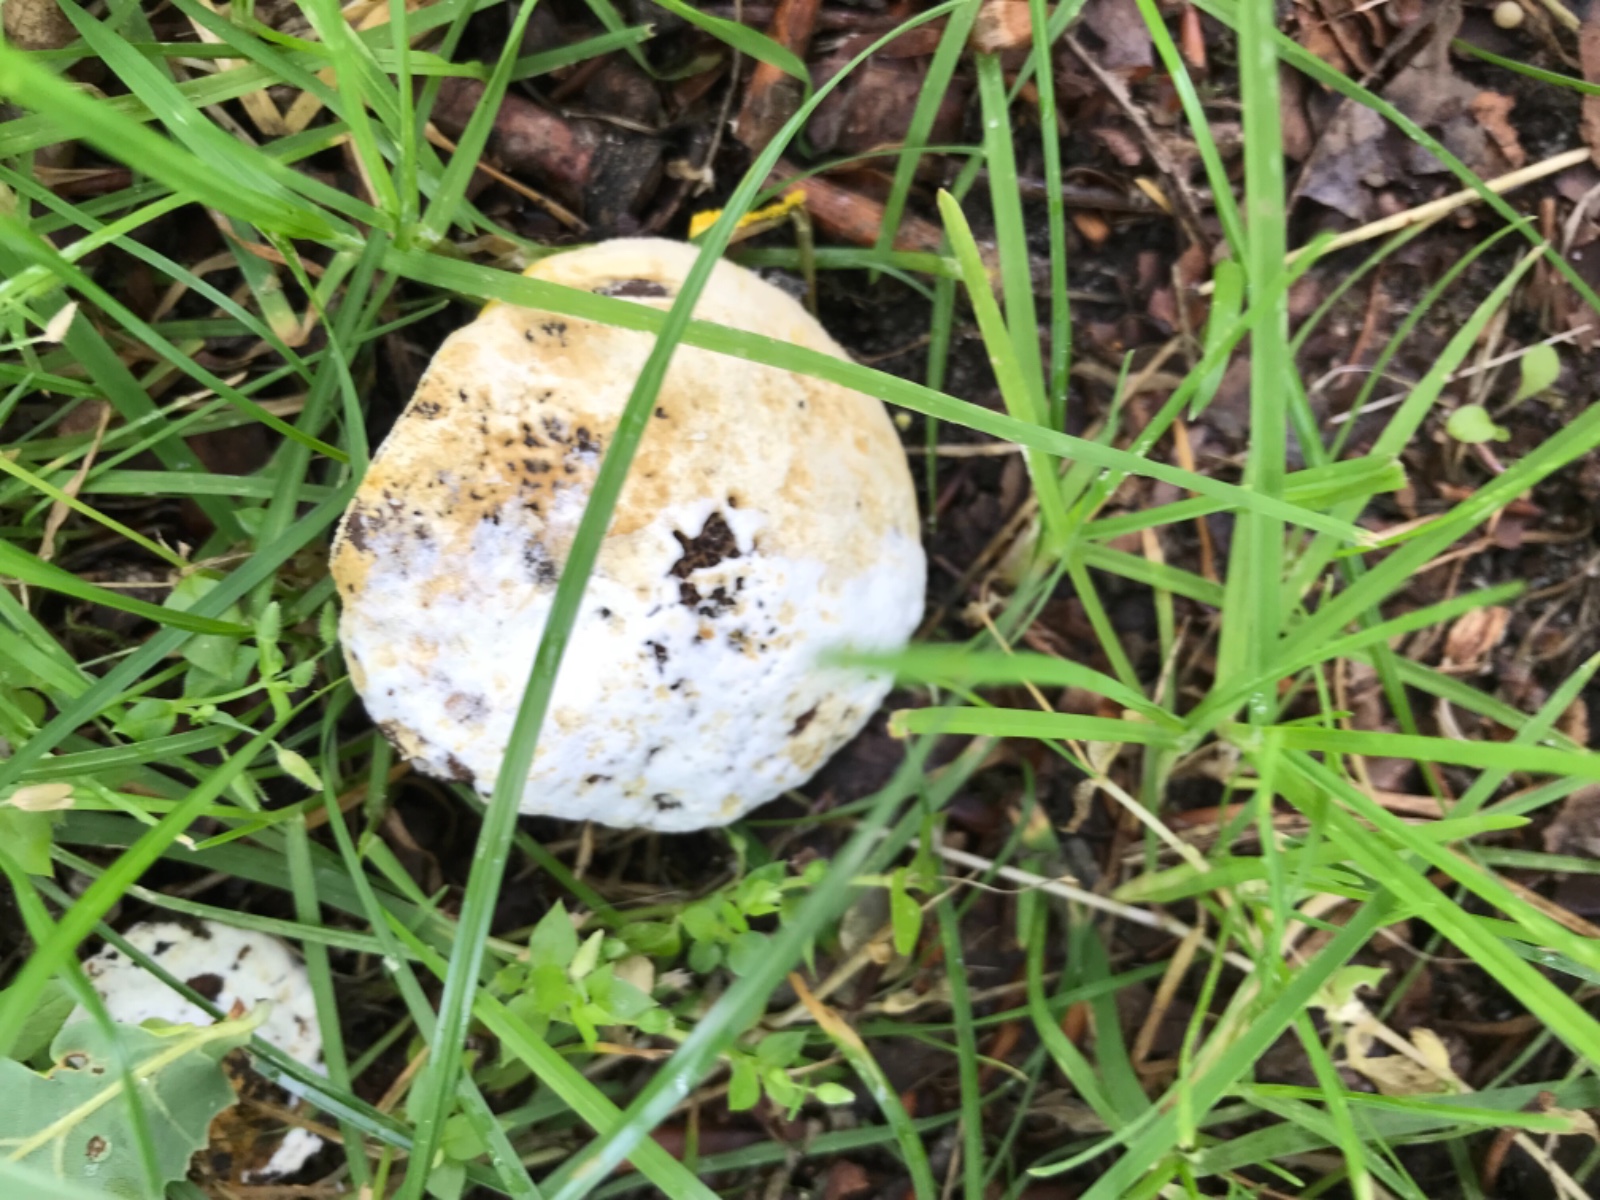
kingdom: Fungi
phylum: Ascomycota
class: Sordariomycetes
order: Hypocreales
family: Hypocreaceae
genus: Hypomyces
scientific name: Hypomyces microspermus
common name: dværgrørhat-snylteskorpe
